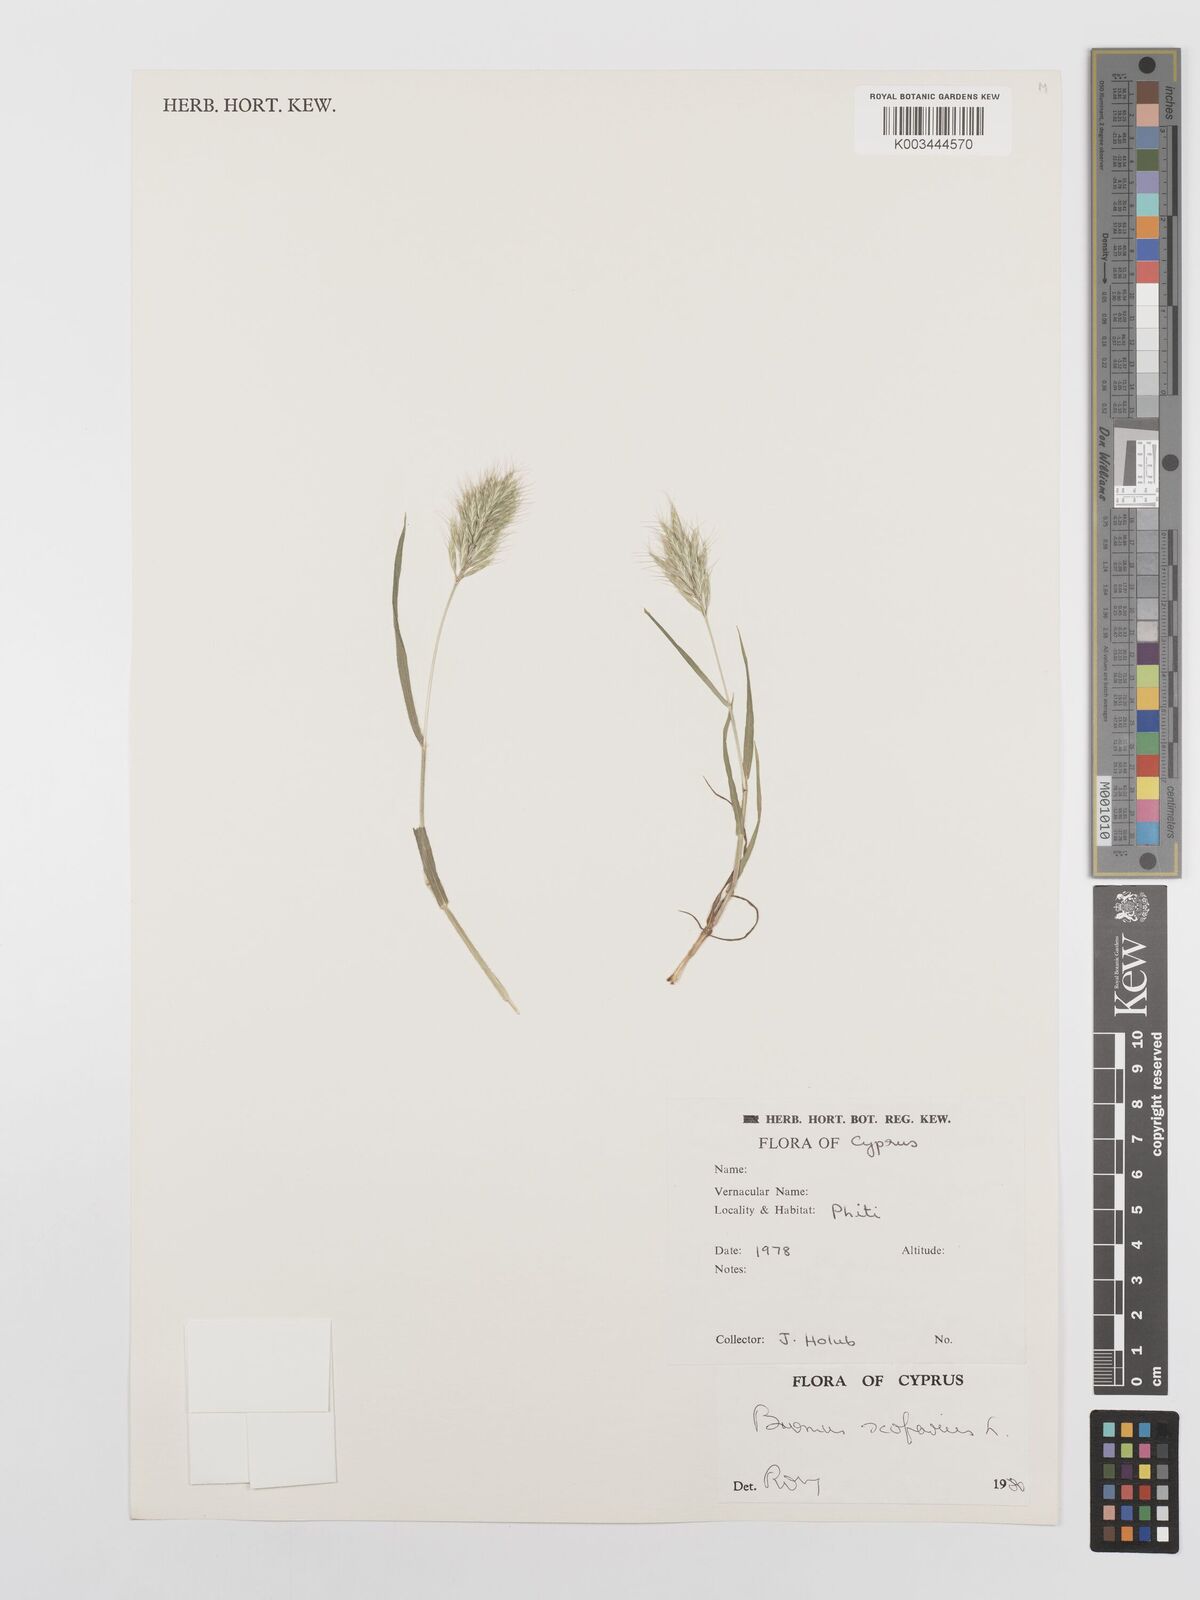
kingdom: Plantae
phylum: Tracheophyta
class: Liliopsida
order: Poales
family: Poaceae
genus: Bromus
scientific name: Bromus scoparius
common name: Broom brome
